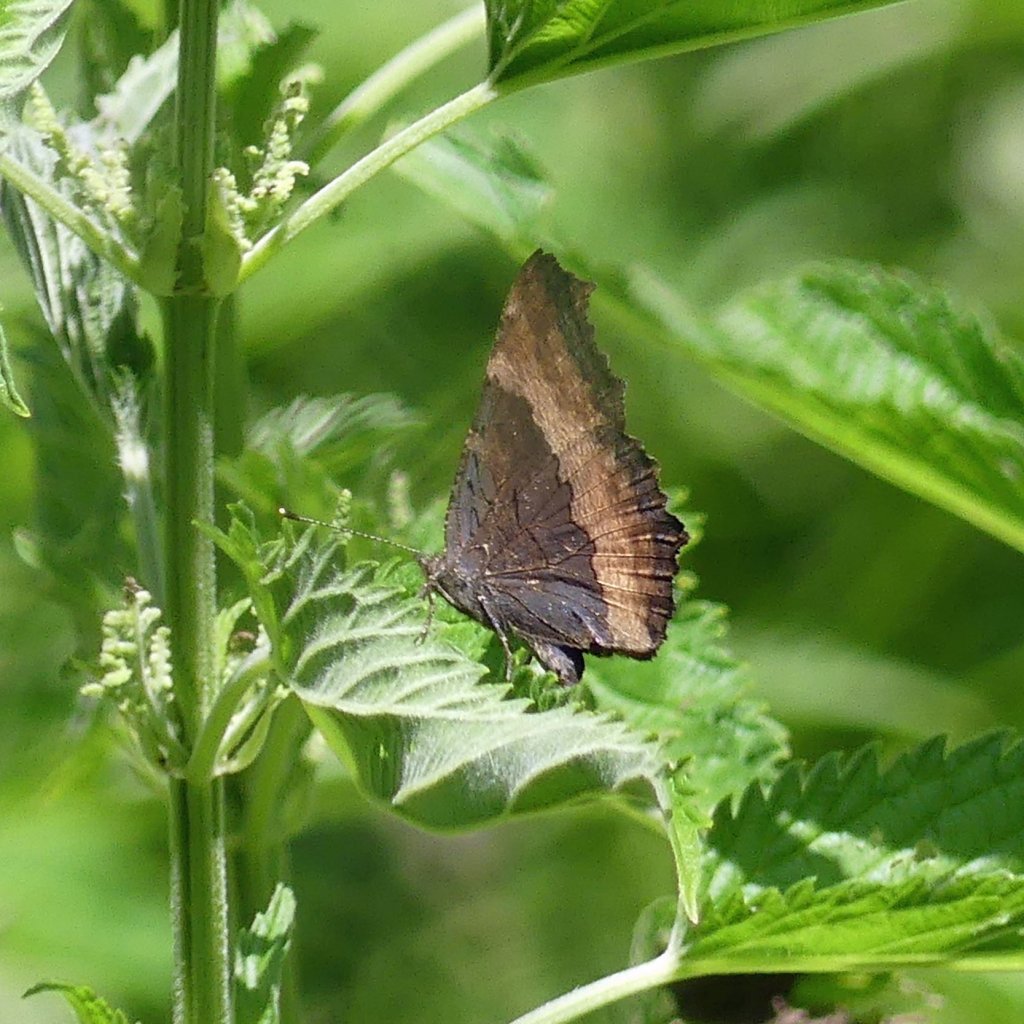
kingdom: Animalia
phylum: Arthropoda
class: Insecta
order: Lepidoptera
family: Nymphalidae
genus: Aglais
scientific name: Aglais milberti
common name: Milbert's Tortoiseshell
